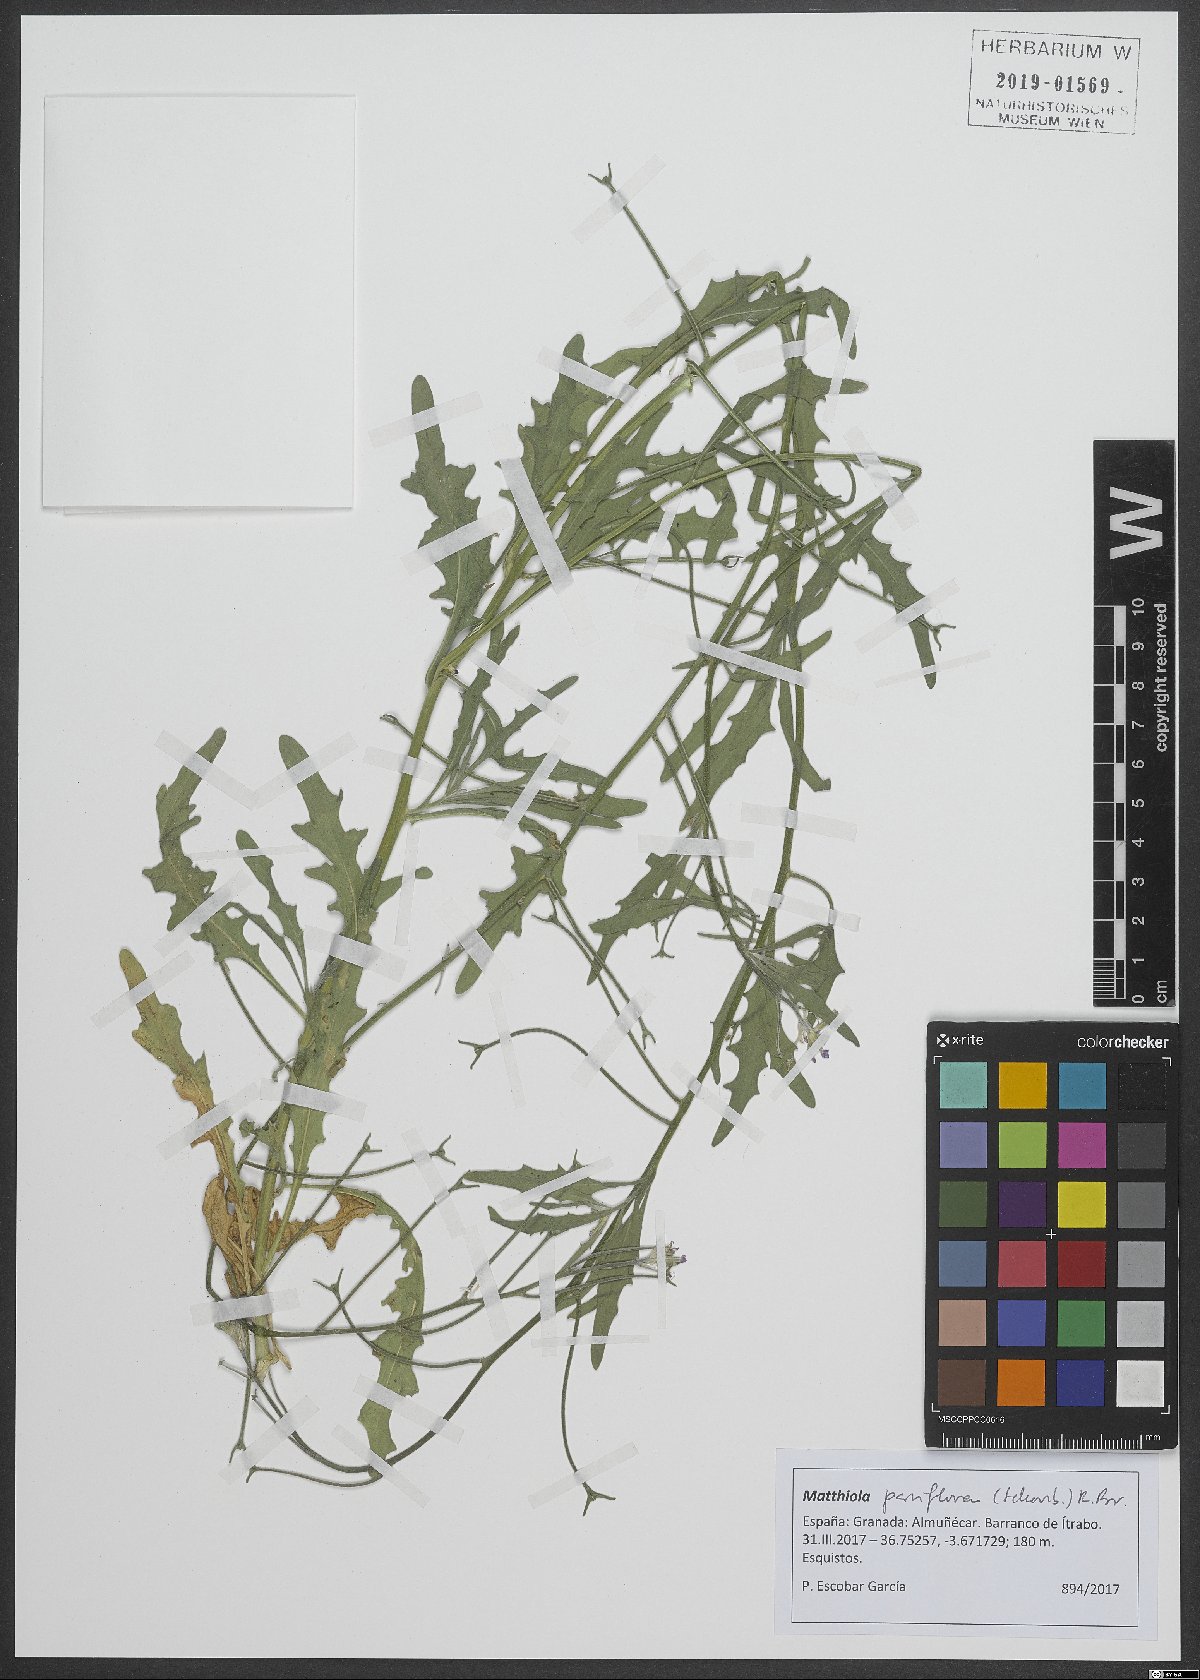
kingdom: Plantae
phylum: Tracheophyta
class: Magnoliopsida
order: Brassicales
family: Brassicaceae
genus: Matthiola
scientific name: Matthiola parviflora
